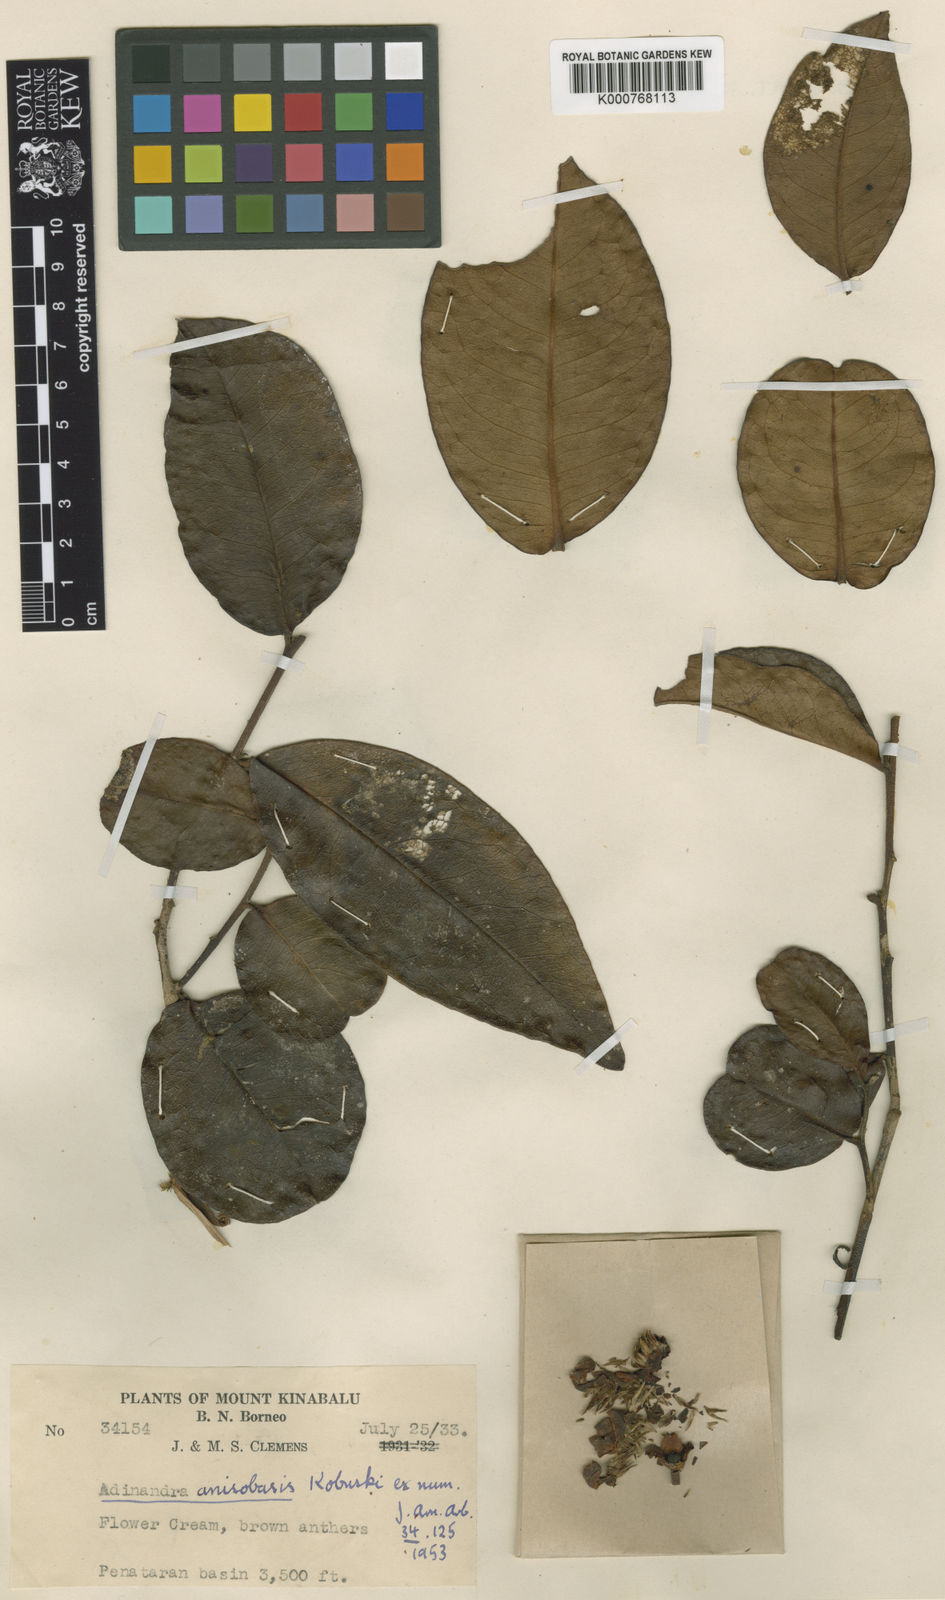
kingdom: Plantae
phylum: Tracheophyta
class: Magnoliopsida
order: Ericales
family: Pentaphylacaceae
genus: Adinandra
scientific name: Adinandra anisobasis
